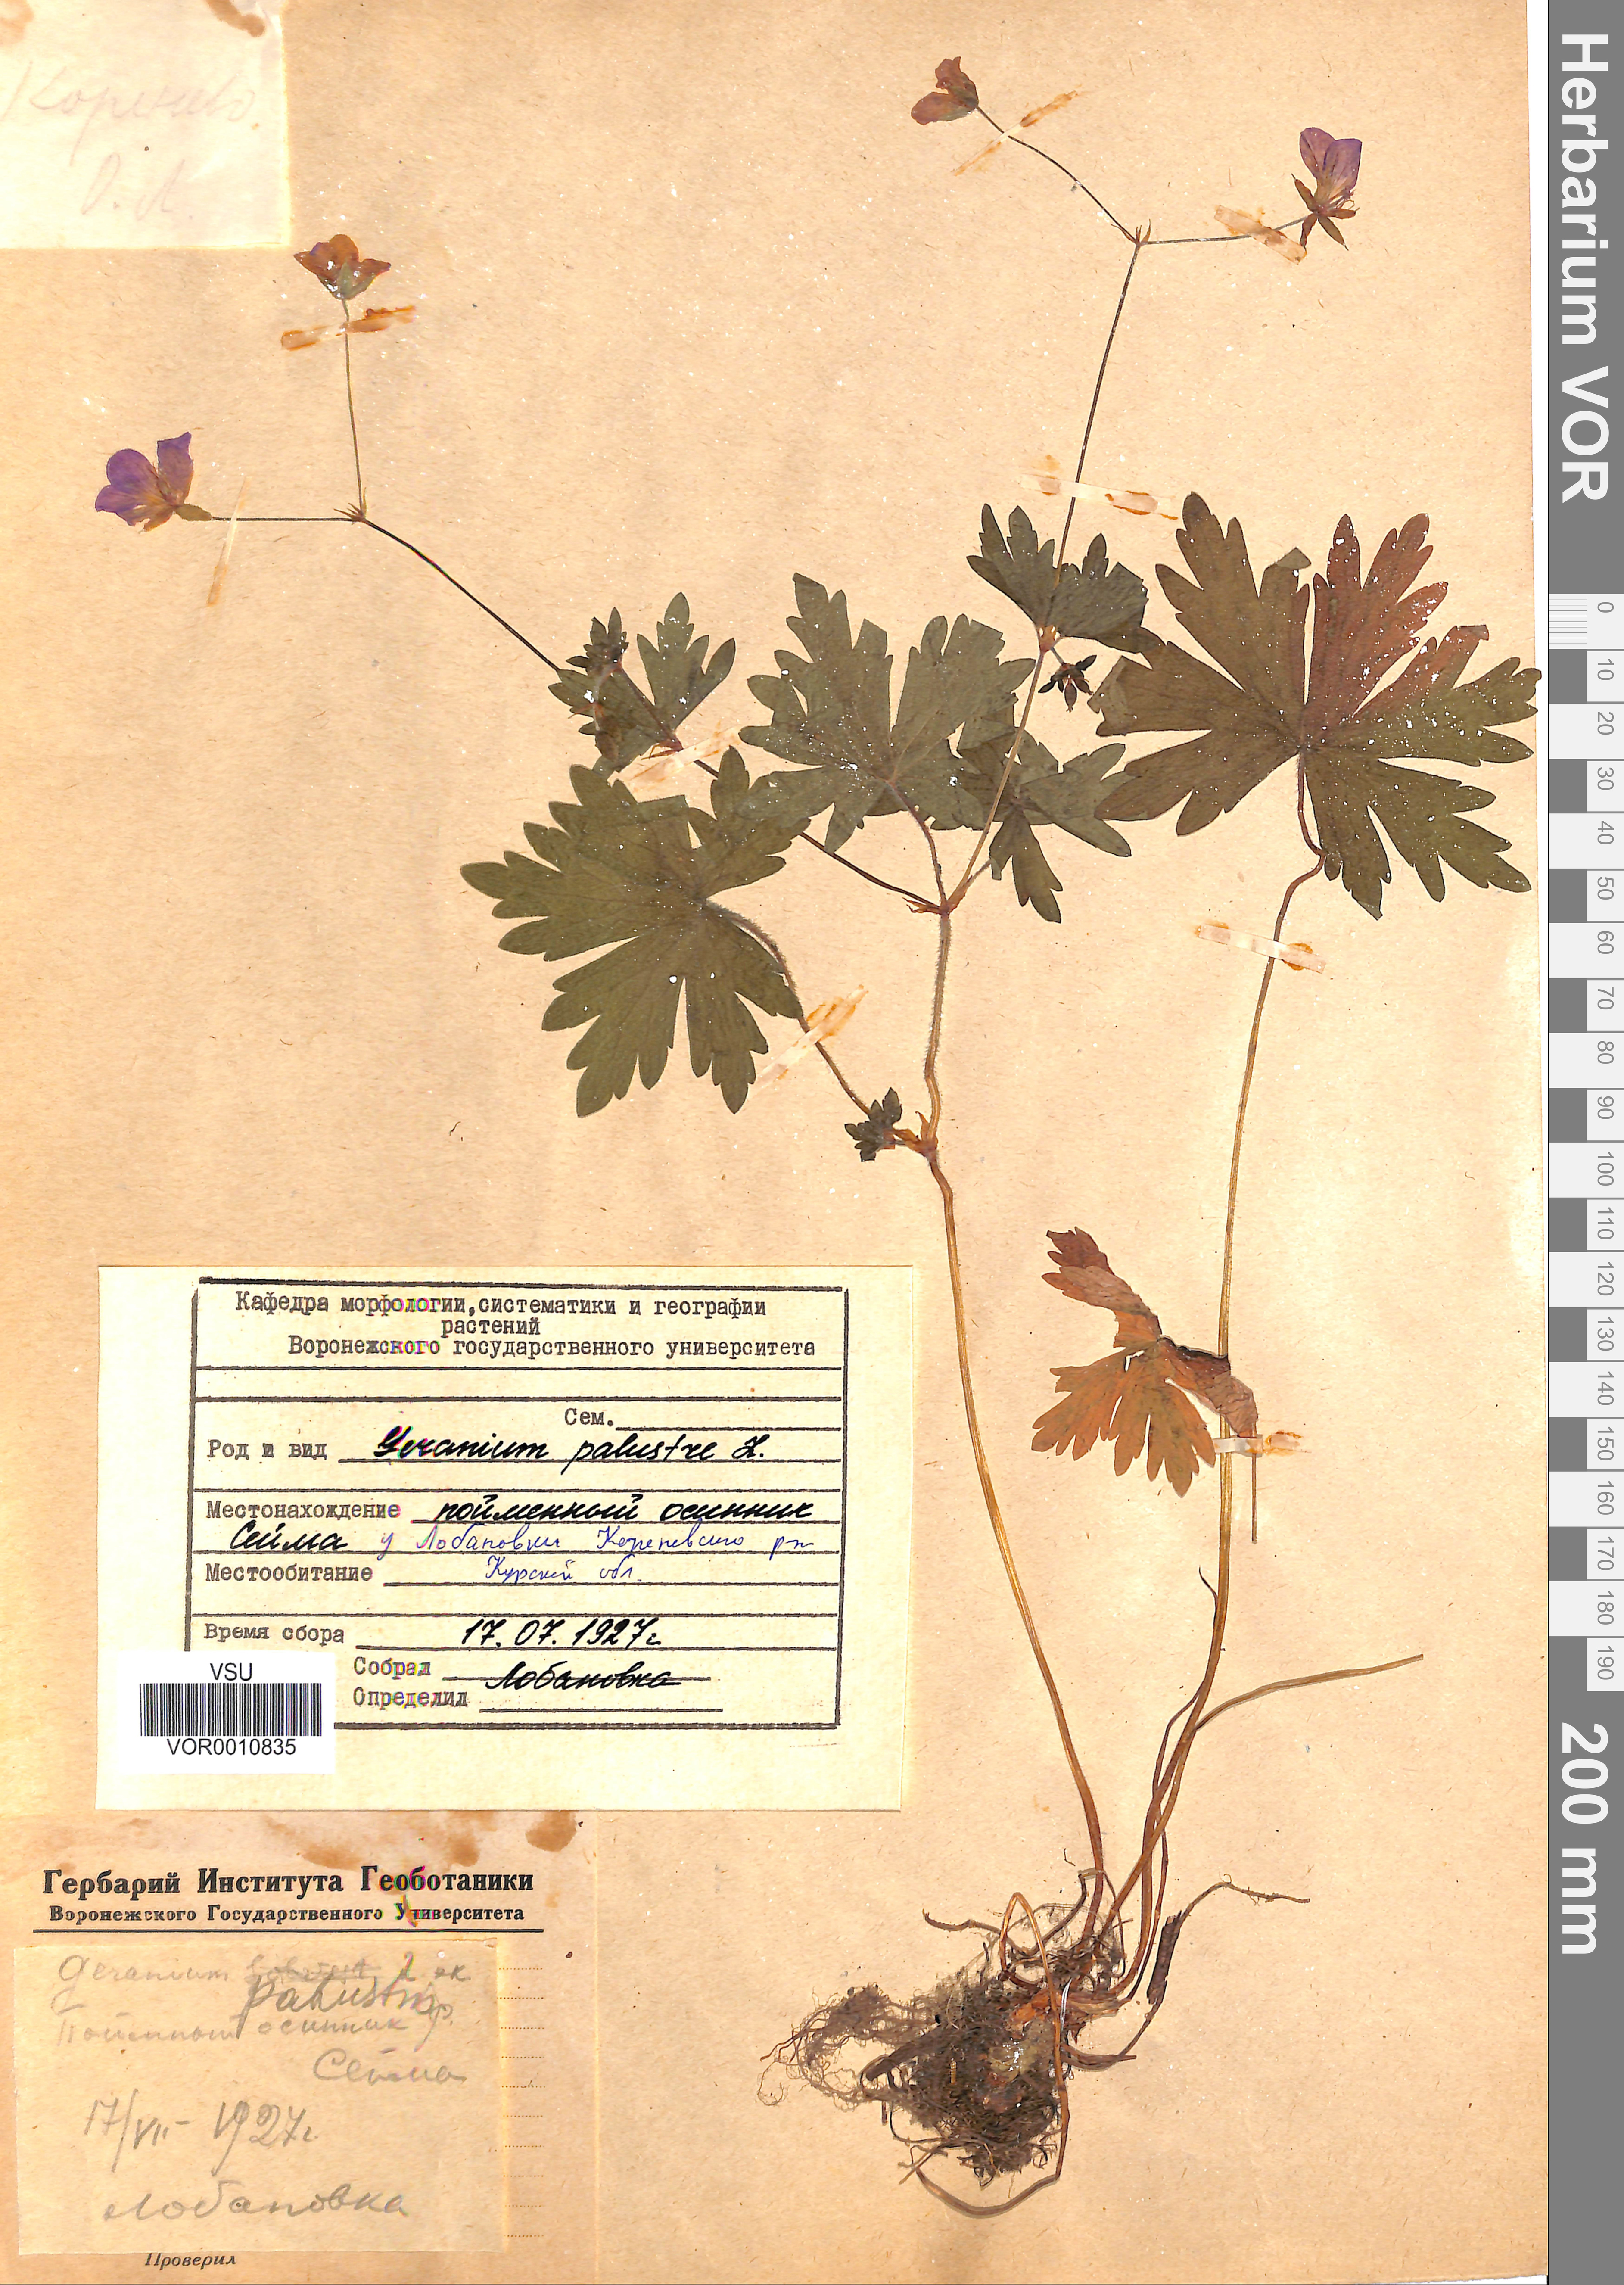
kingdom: Plantae
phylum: Tracheophyta
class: Magnoliopsida
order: Geraniales
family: Geraniaceae
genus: Geranium
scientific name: Geranium palustre
